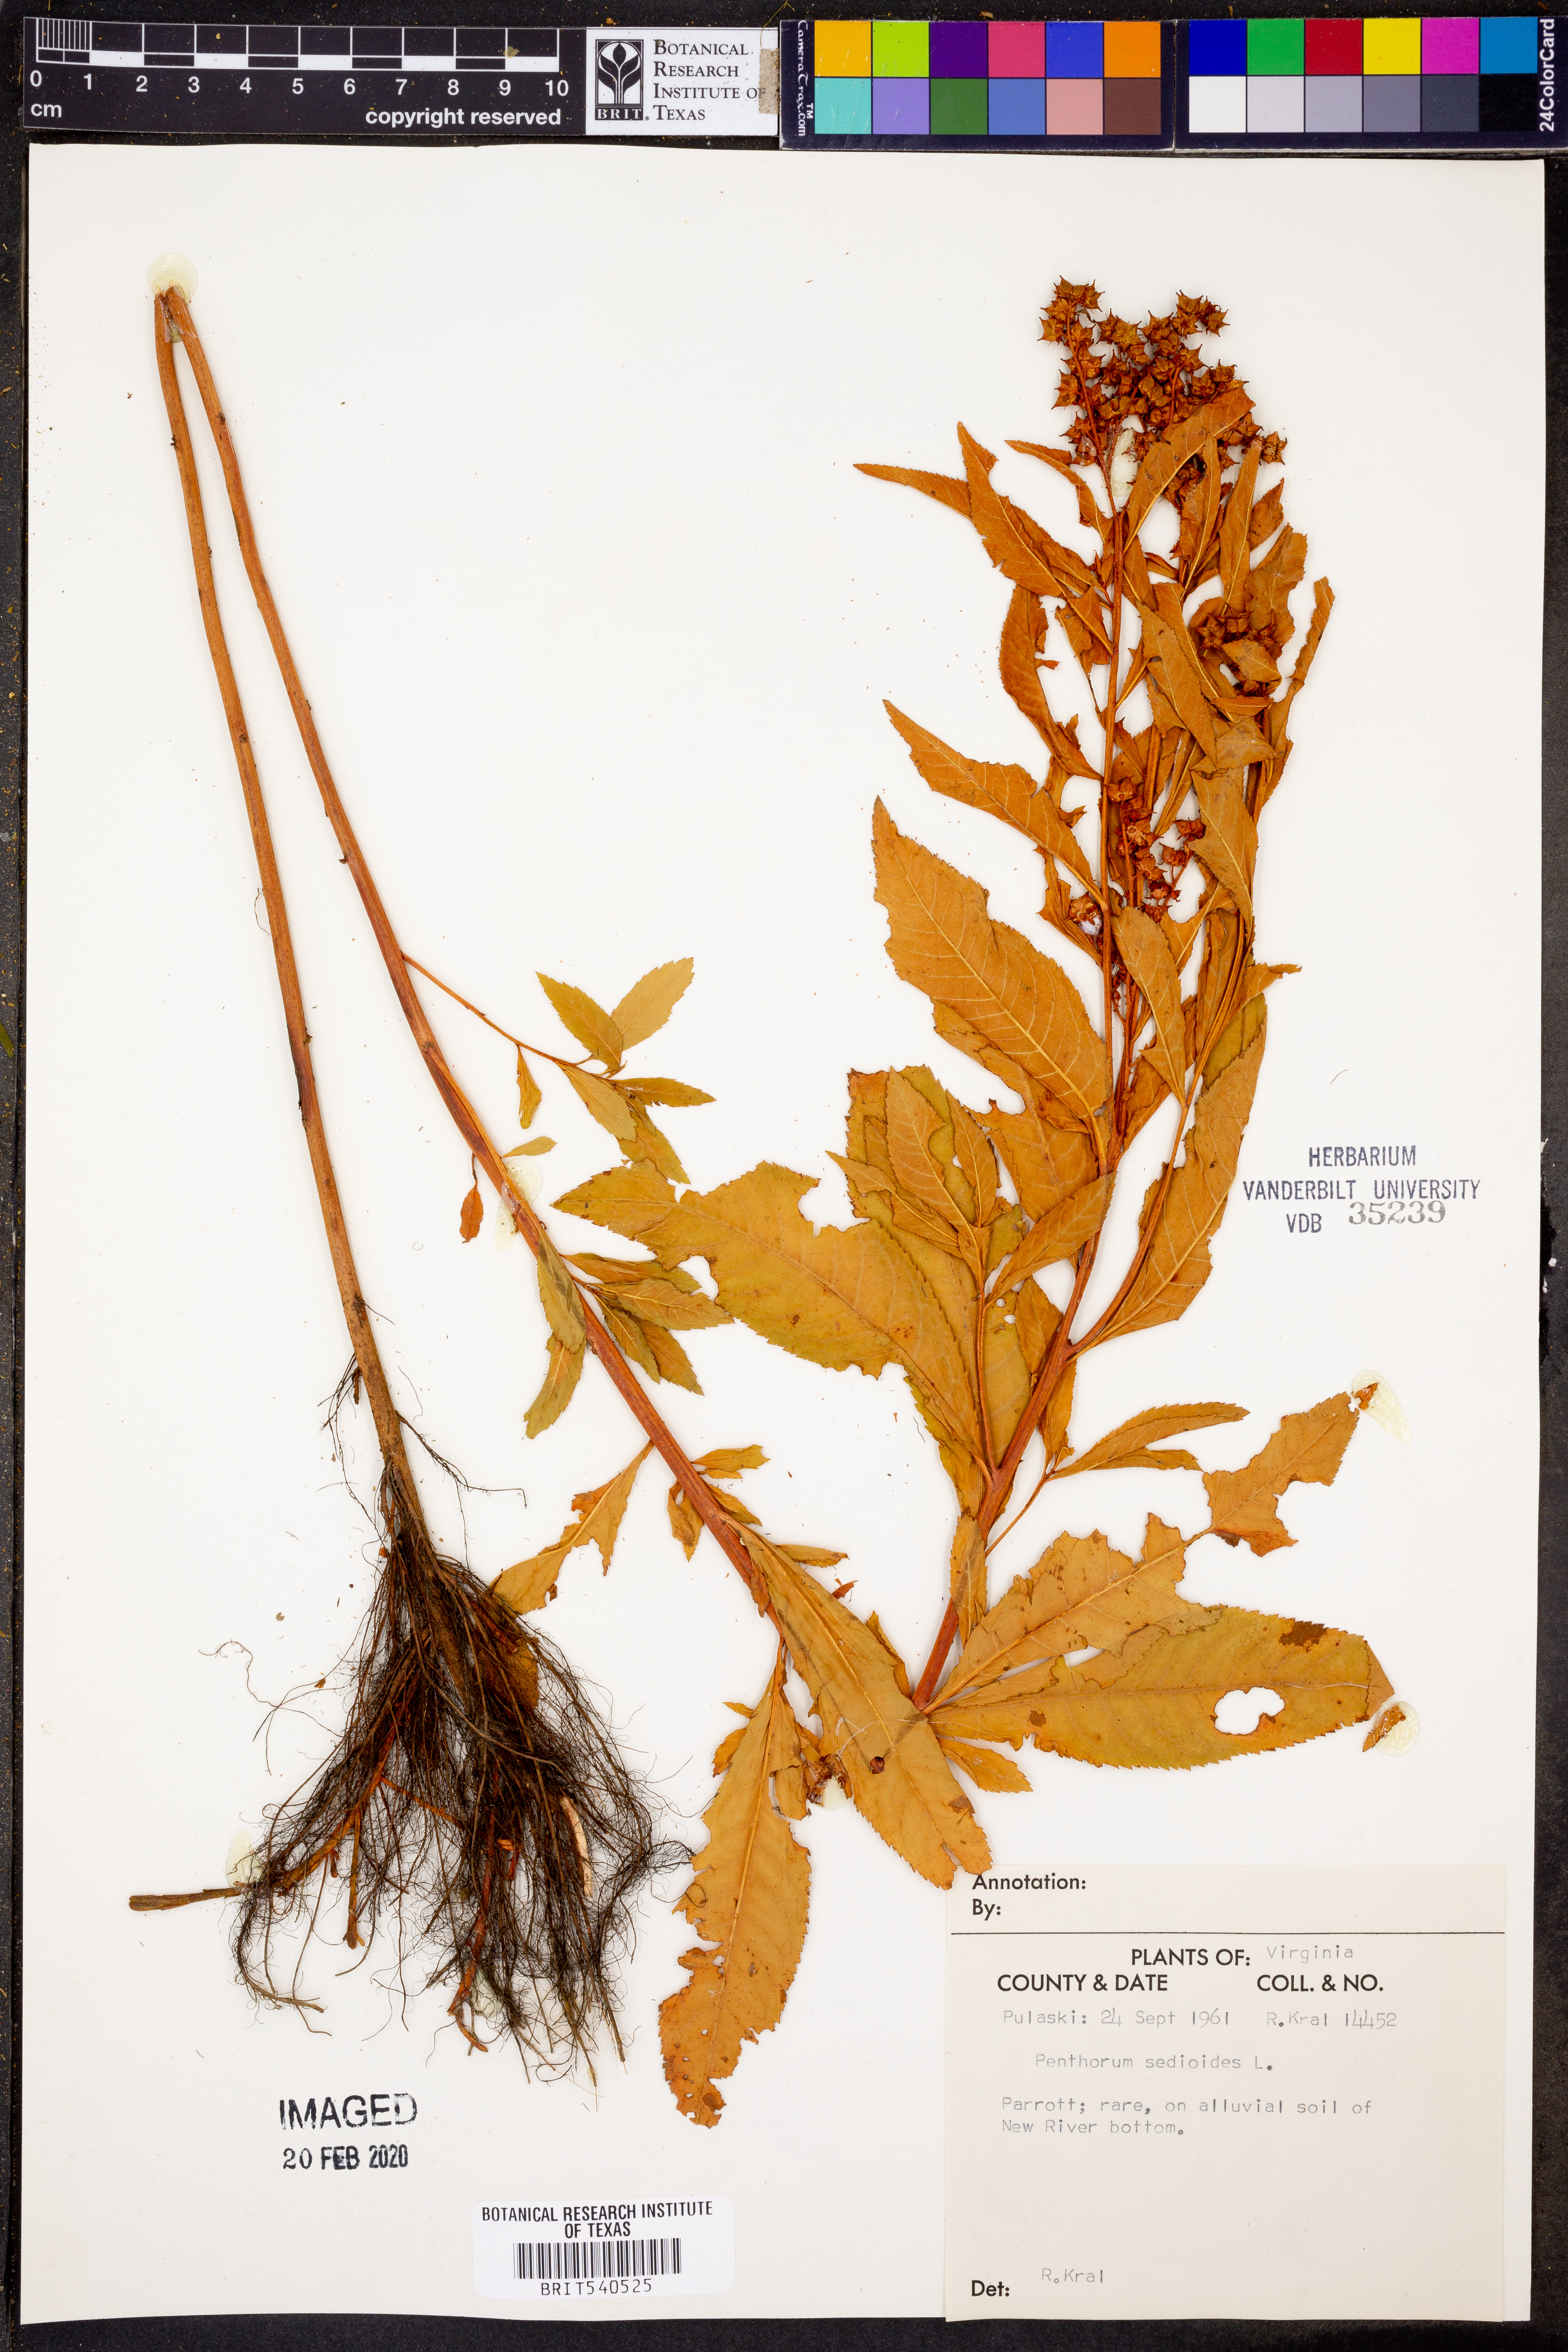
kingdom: Plantae
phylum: Tracheophyta
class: Magnoliopsida
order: Saxifragales
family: Penthoraceae
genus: Penthorum
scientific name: Penthorum sedoides
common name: Ditch stonecrop
